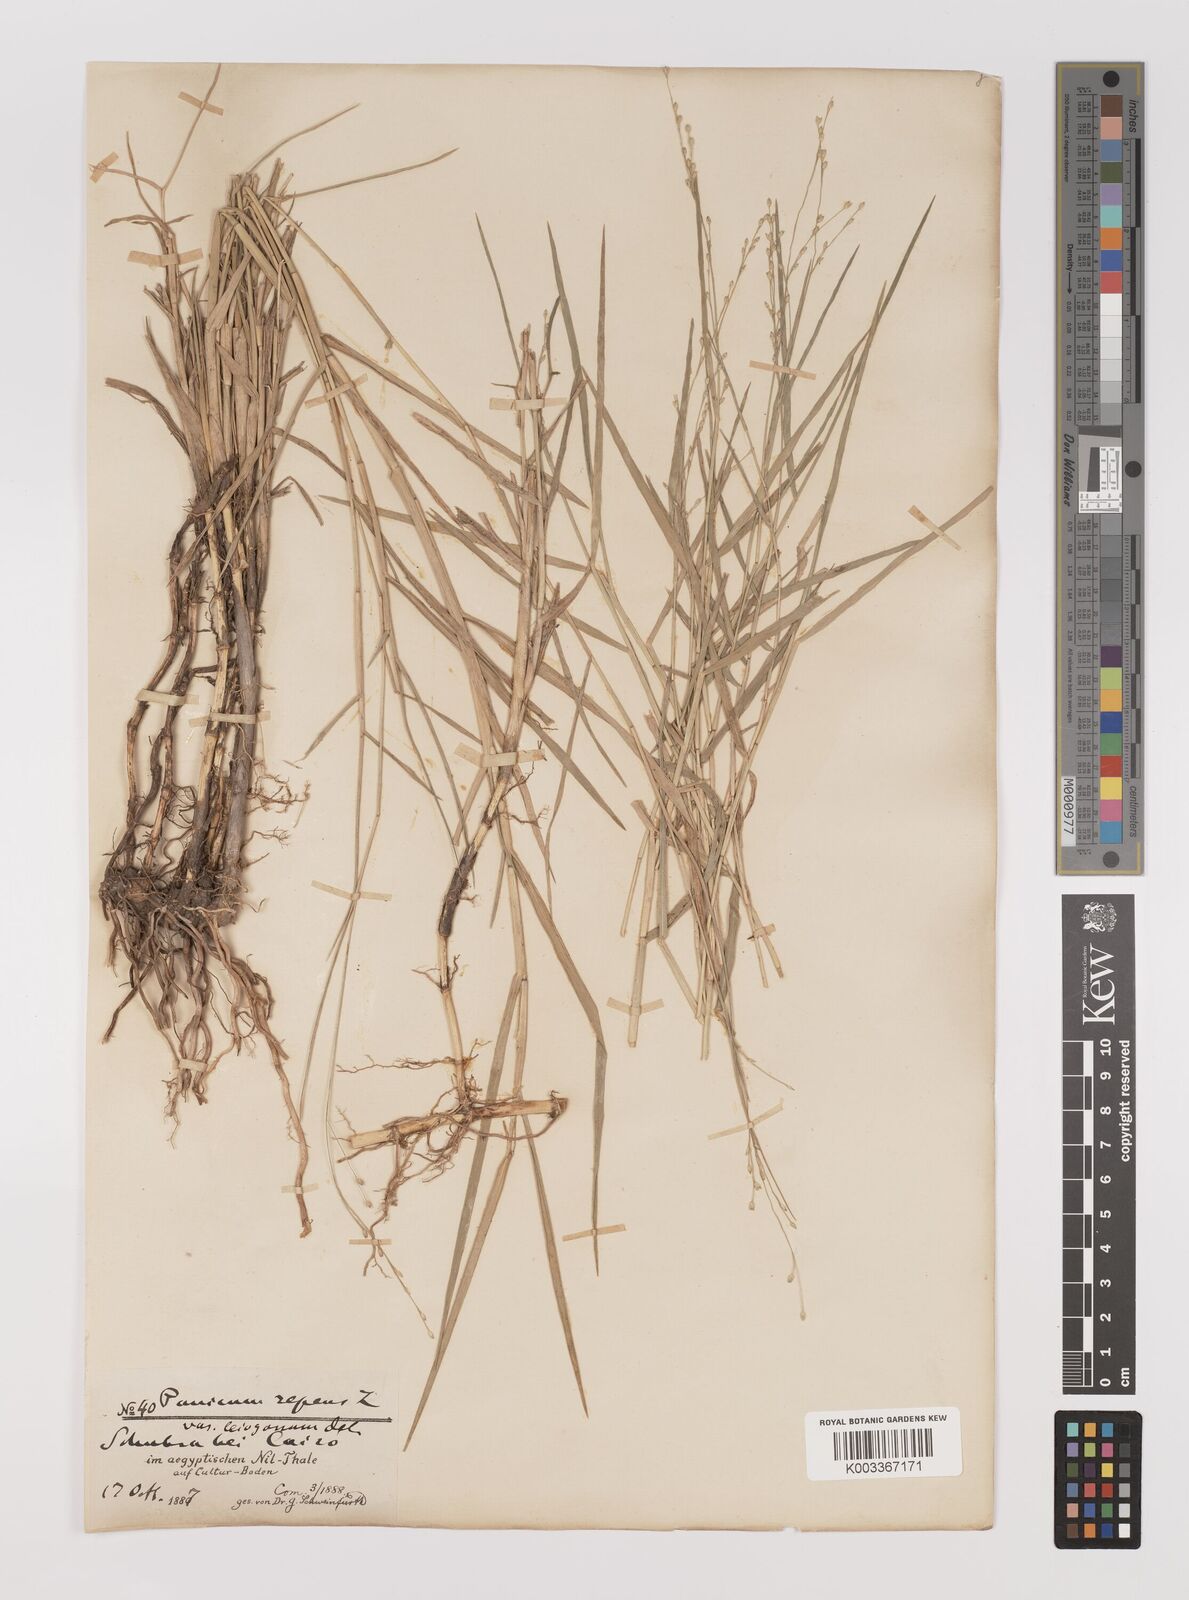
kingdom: Plantae
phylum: Tracheophyta
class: Liliopsida
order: Poales
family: Poaceae
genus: Panicum
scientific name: Panicum repens
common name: Torpedo grass
